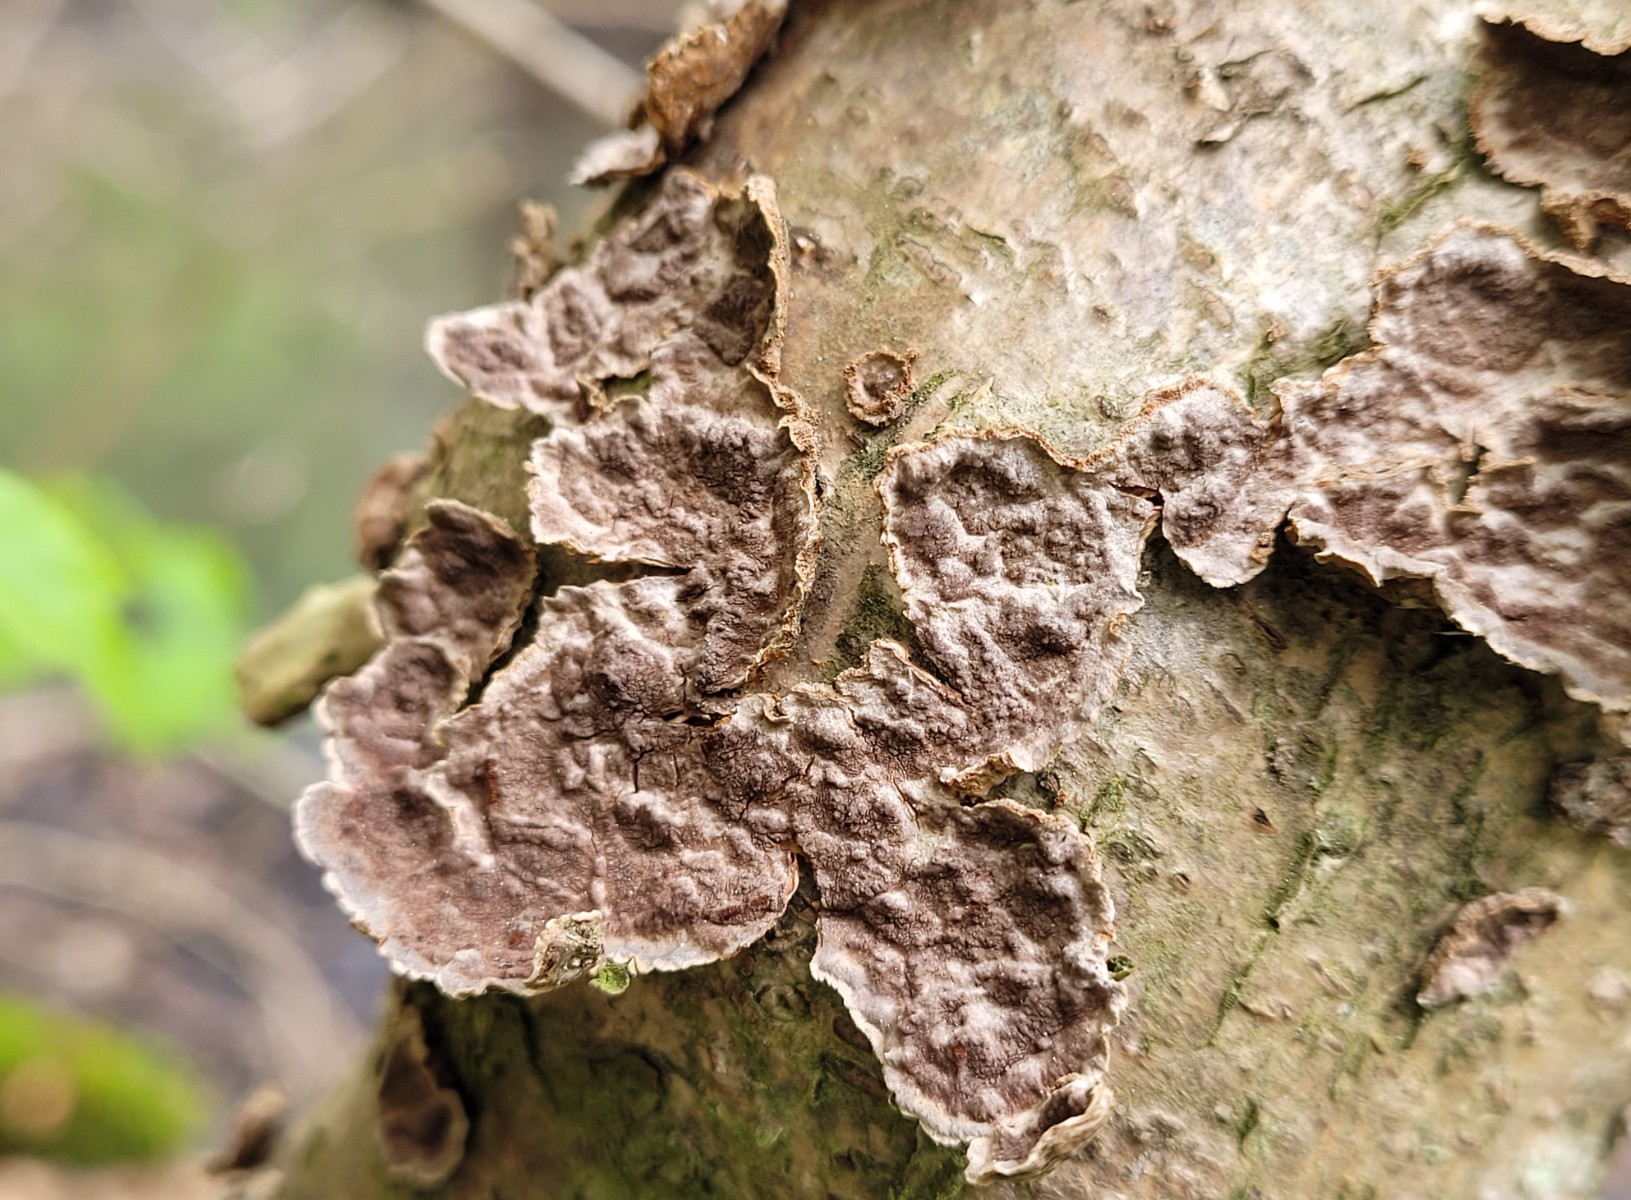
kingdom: Fungi
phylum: Basidiomycota
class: Agaricomycetes
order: Hymenochaetales
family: Hymenochaetaceae
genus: Hydnoporia
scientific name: Hydnoporia tabacina
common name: tobaksbrun ruslædersvamp
